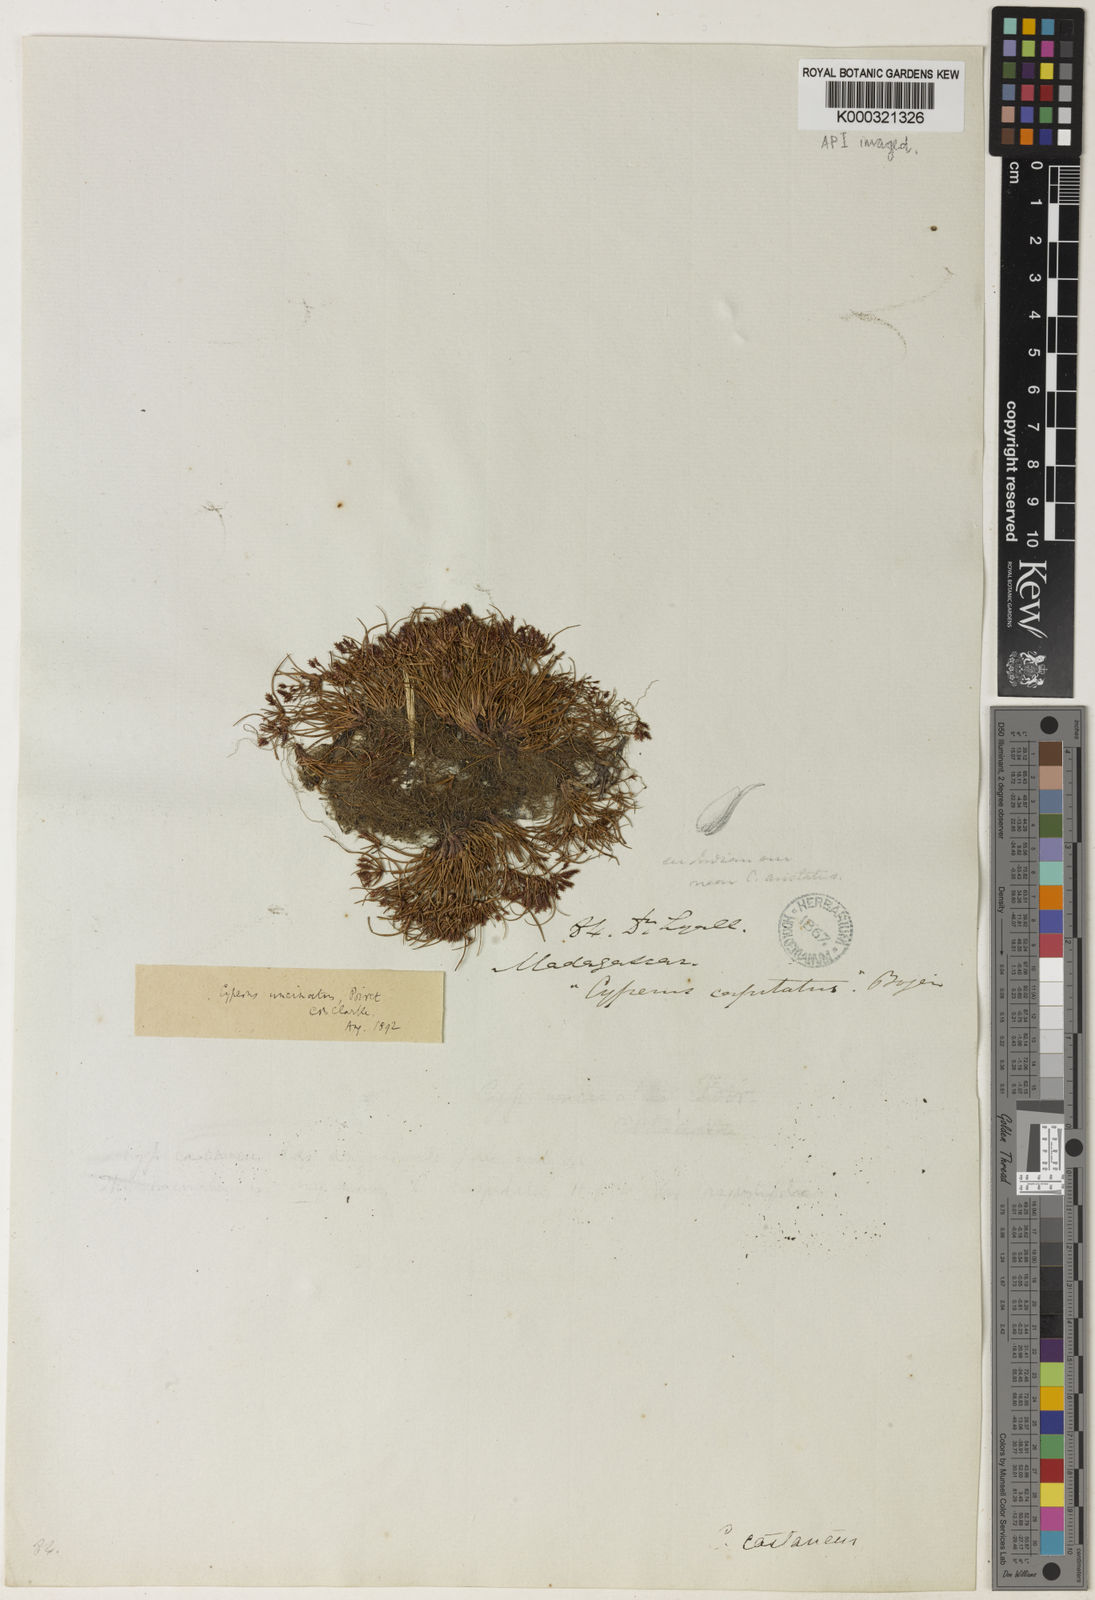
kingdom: Plantae
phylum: Tracheophyta
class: Liliopsida
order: Poales
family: Cyperaceae
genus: Cyperus
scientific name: Cyperus cuspidatus
